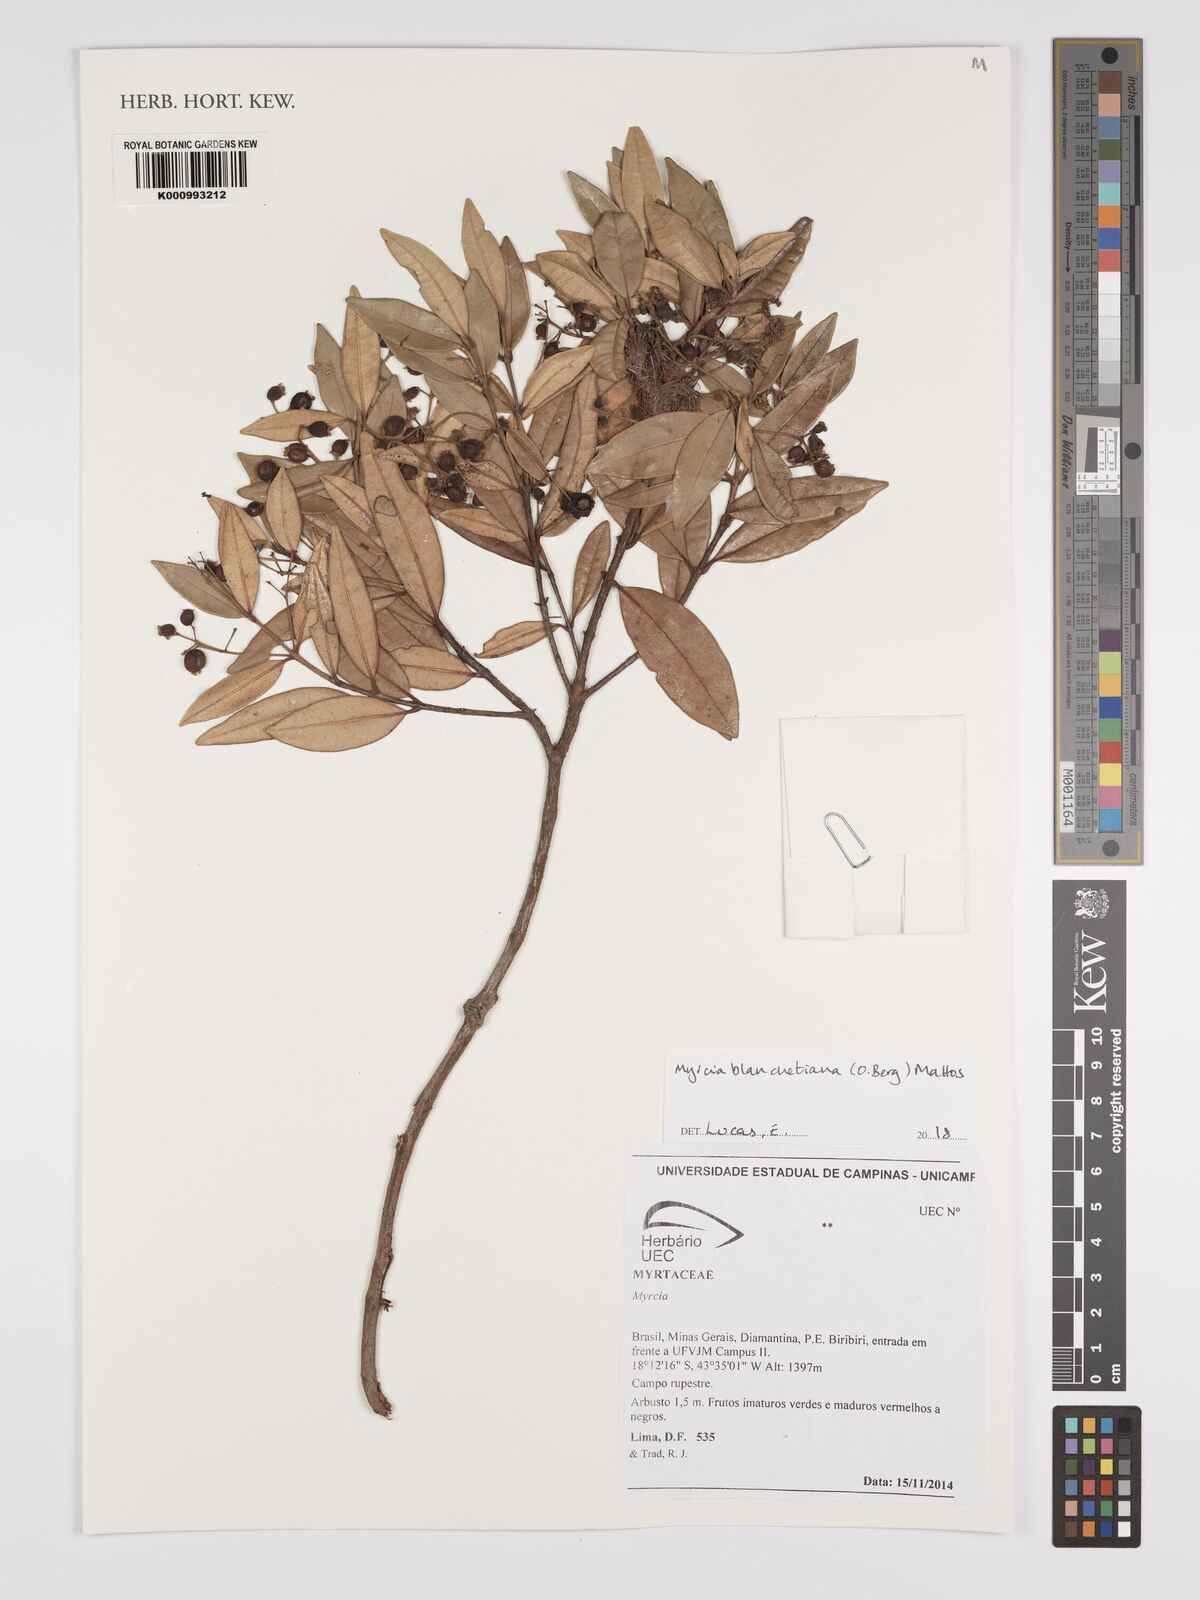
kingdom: Plantae
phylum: Tracheophyta
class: Magnoliopsida
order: Myrtales
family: Myrtaceae
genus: Myrcia
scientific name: Myrcia blanchetiana
